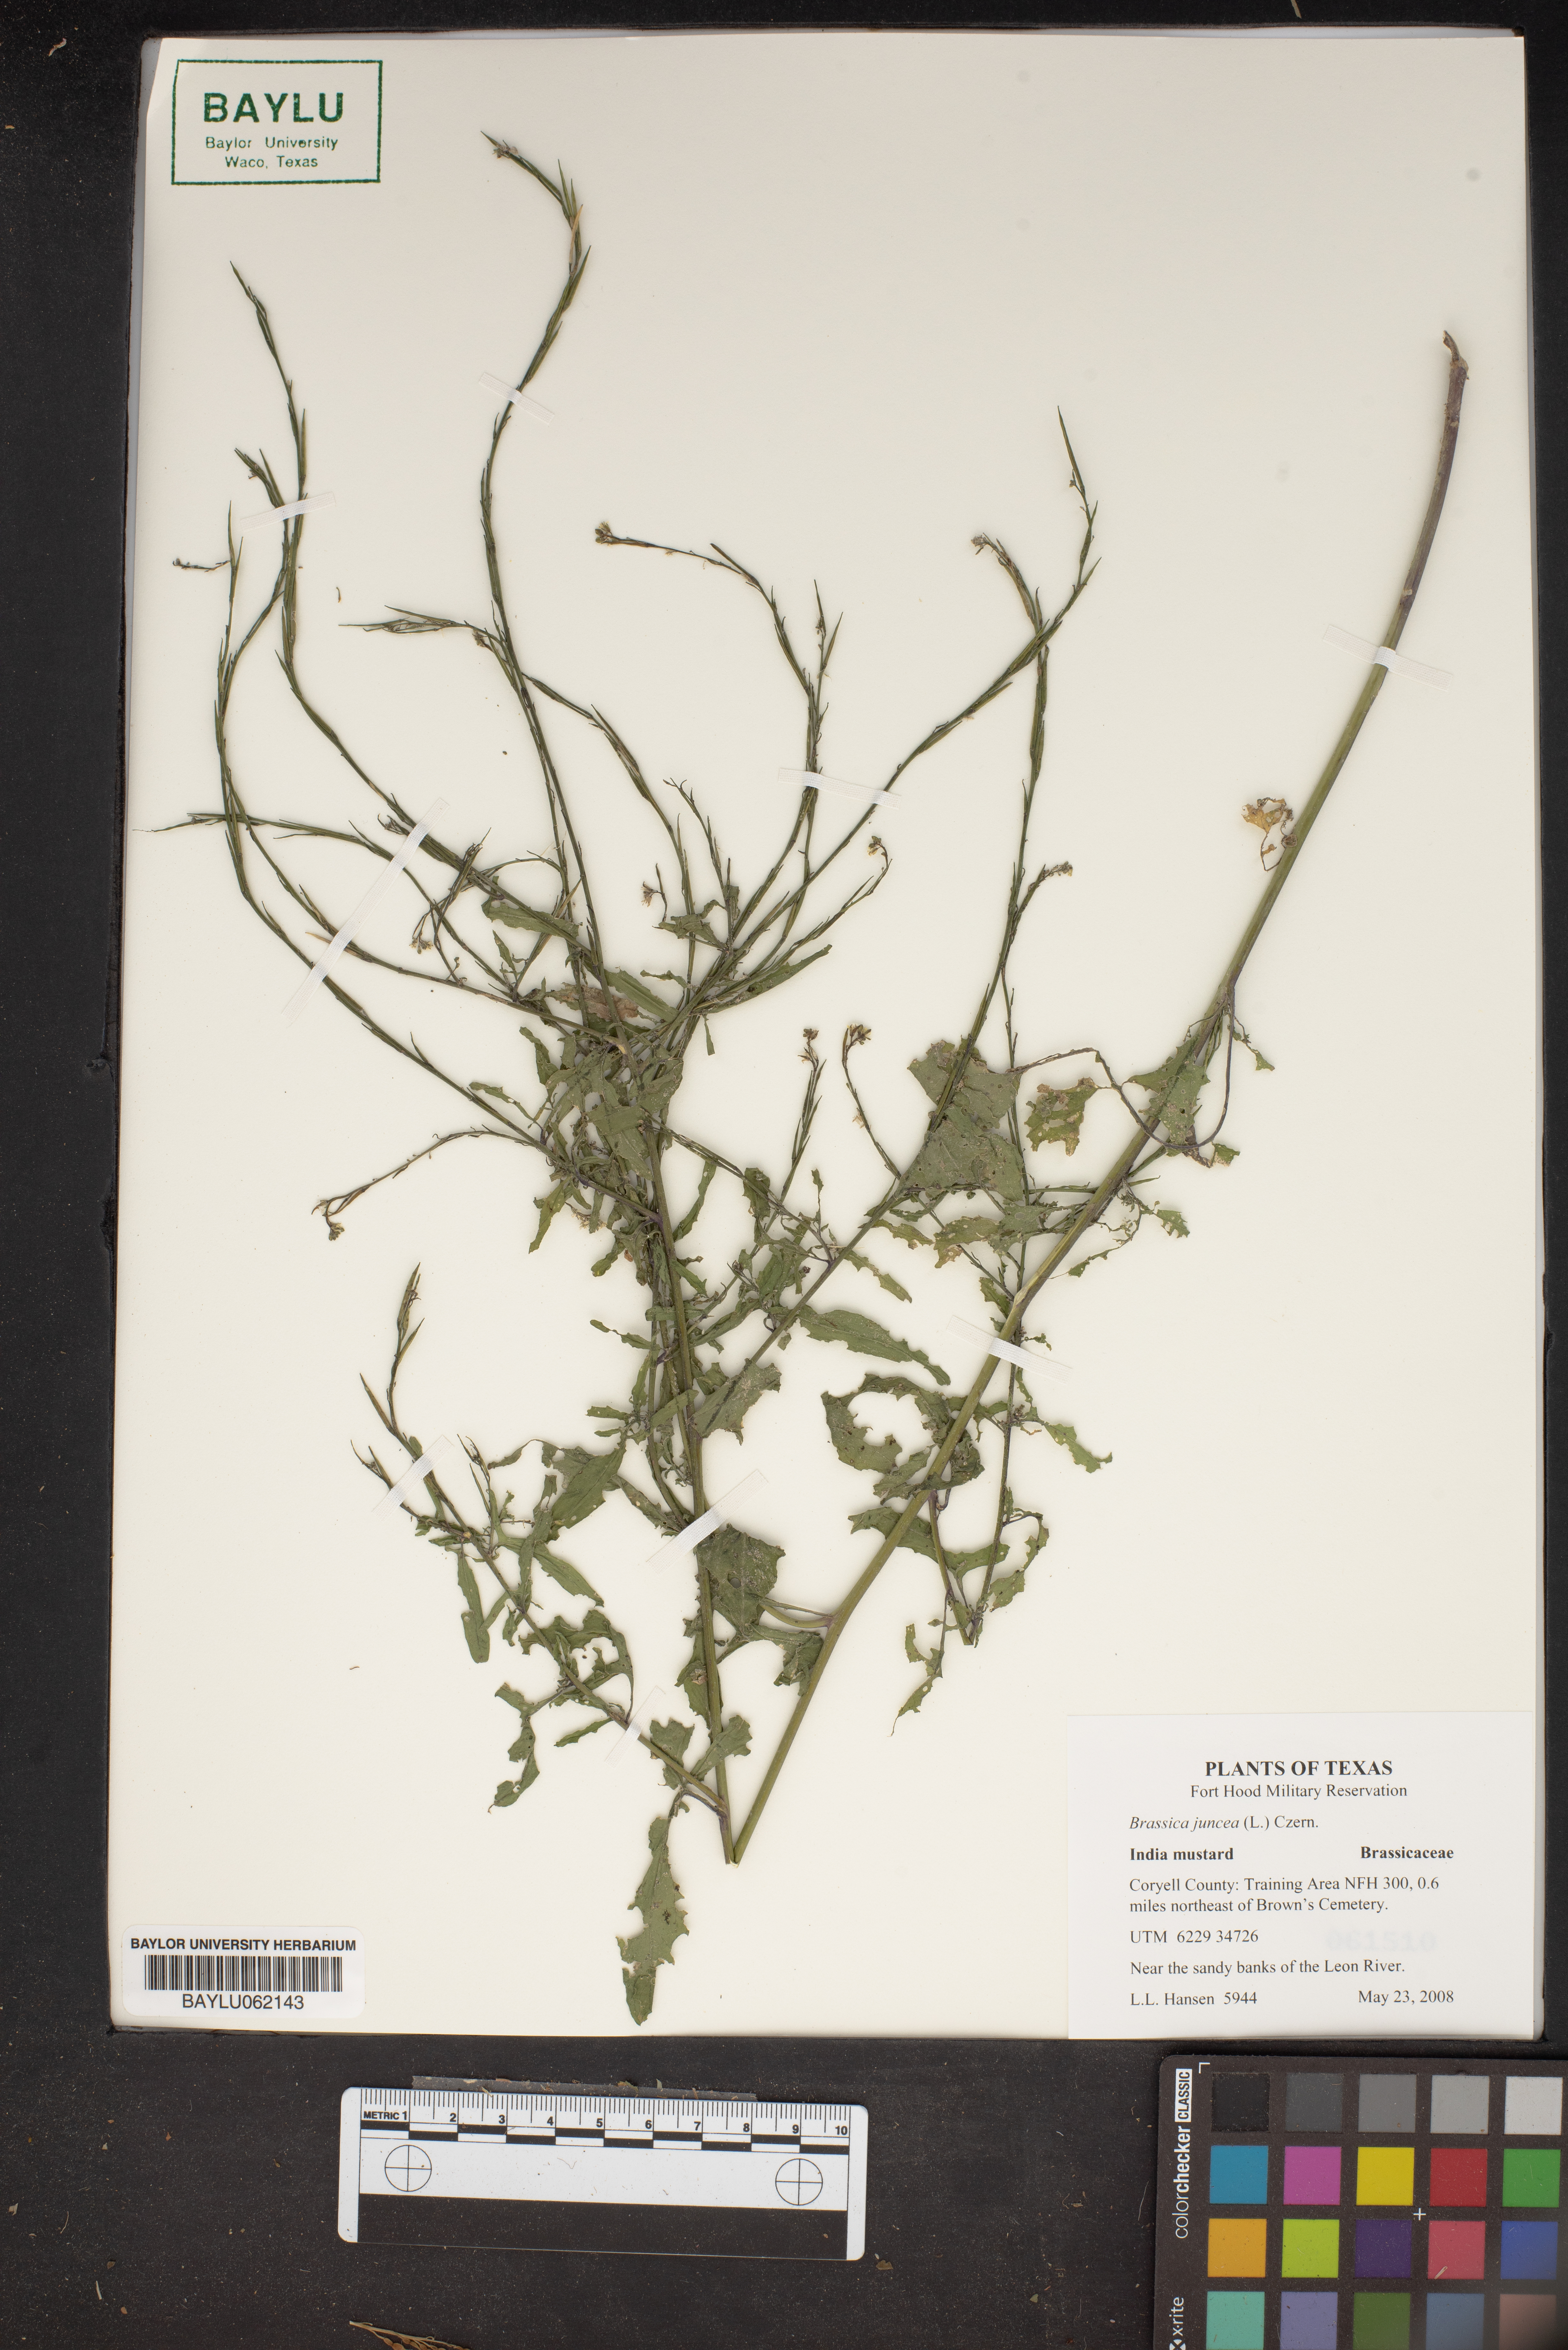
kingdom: Plantae
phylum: Tracheophyta
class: Magnoliopsida
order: Brassicales
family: Brassicaceae
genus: Brassica
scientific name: Brassica juncea
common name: Brown mustard
